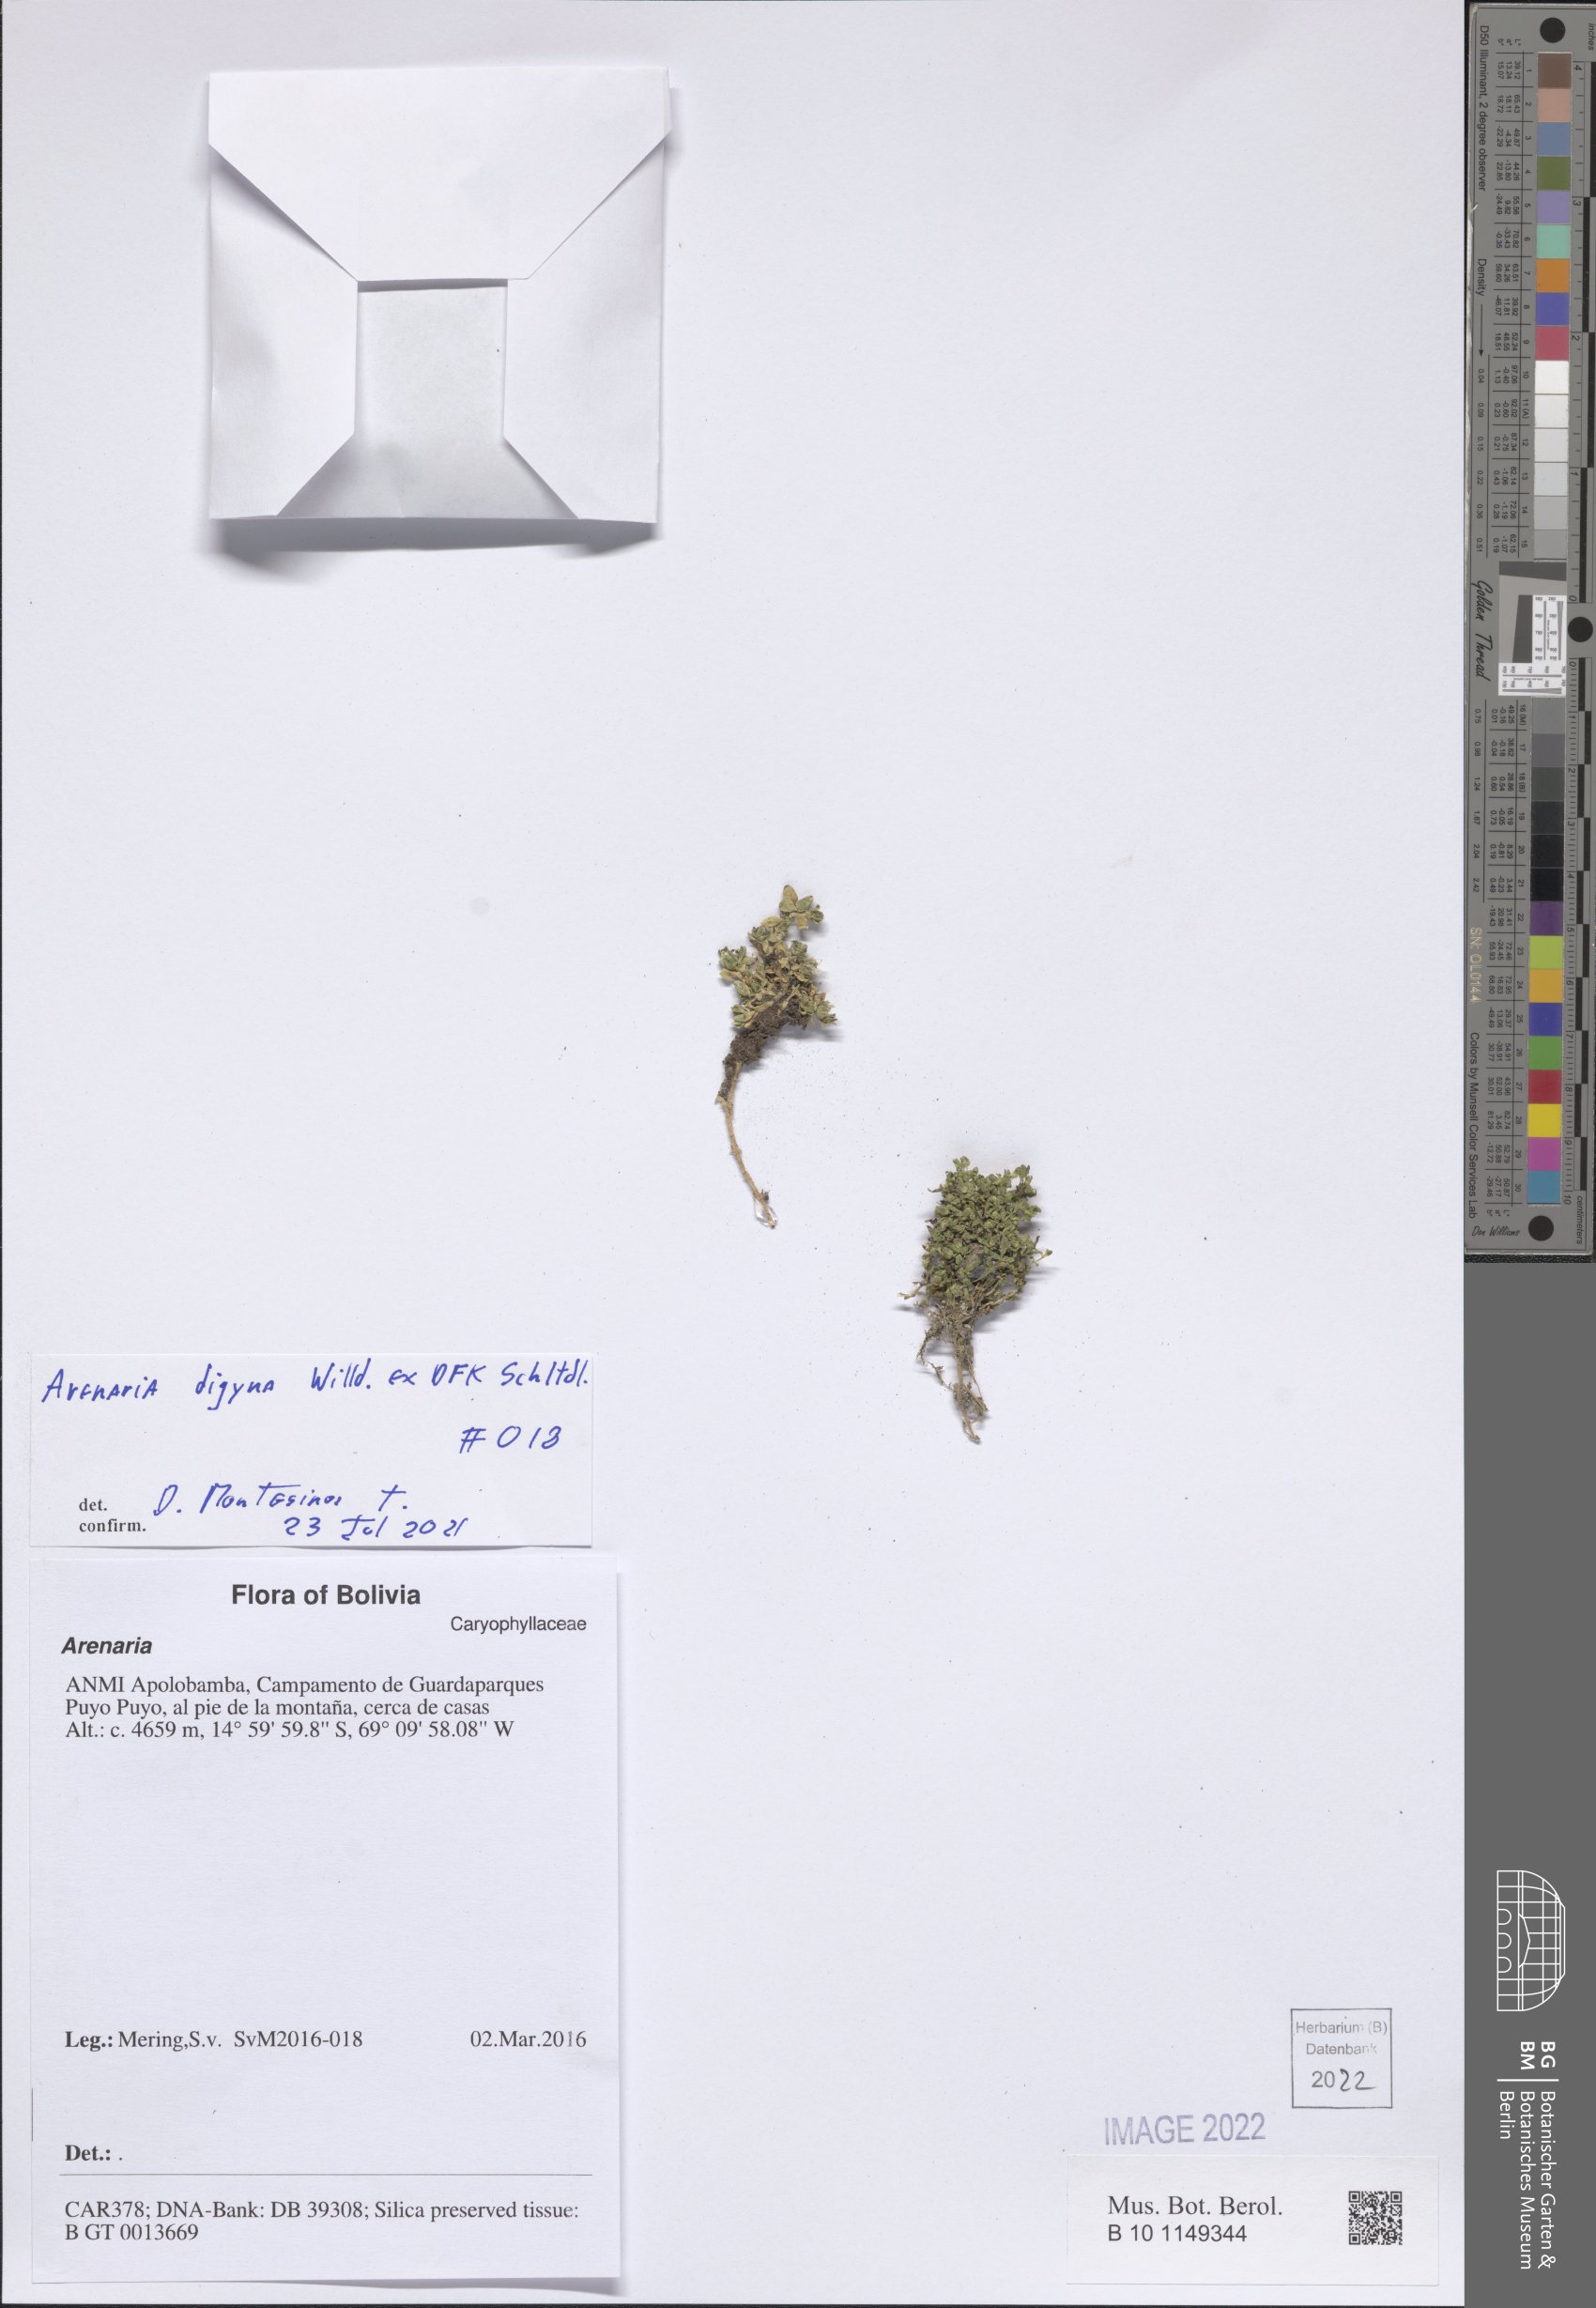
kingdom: Plantae
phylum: Tracheophyta
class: Magnoliopsida
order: Caryophyllales
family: Caryophyllaceae
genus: Arenaria
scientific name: Arenaria digyna
